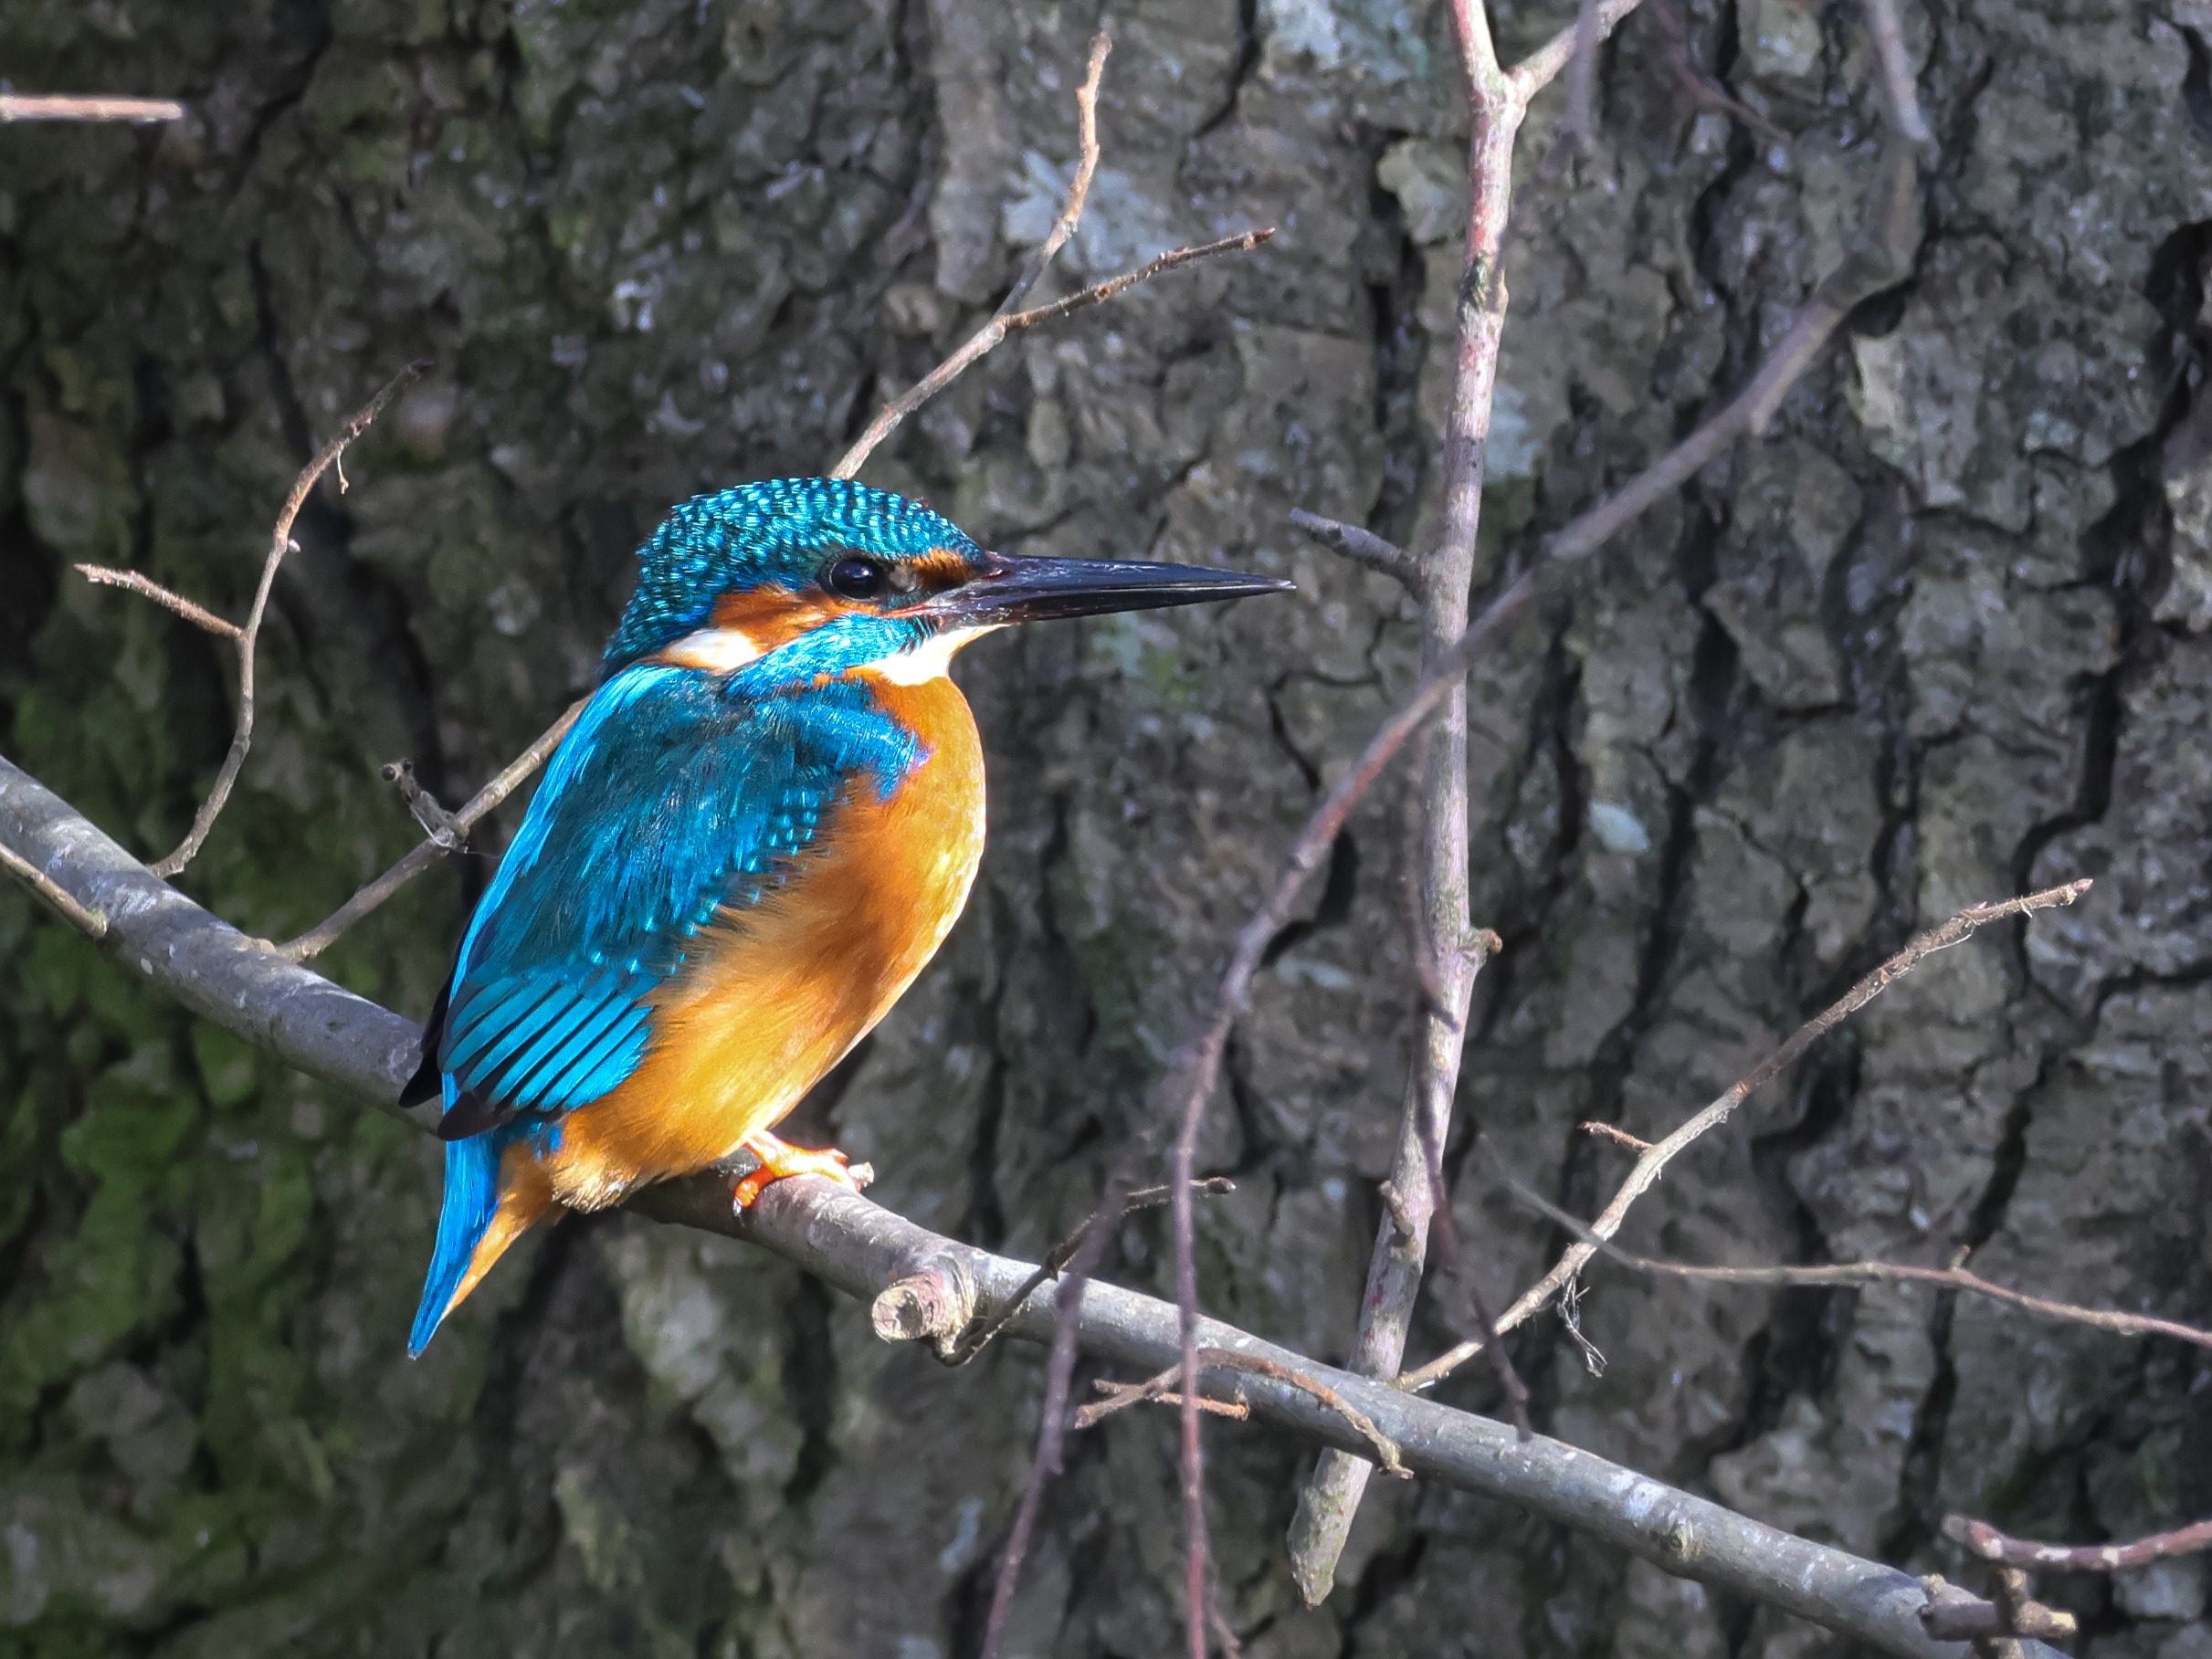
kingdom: Animalia
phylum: Chordata
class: Aves
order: Coraciiformes
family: Alcedinidae
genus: Alcedo
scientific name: Alcedo atthis
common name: Isfugl
